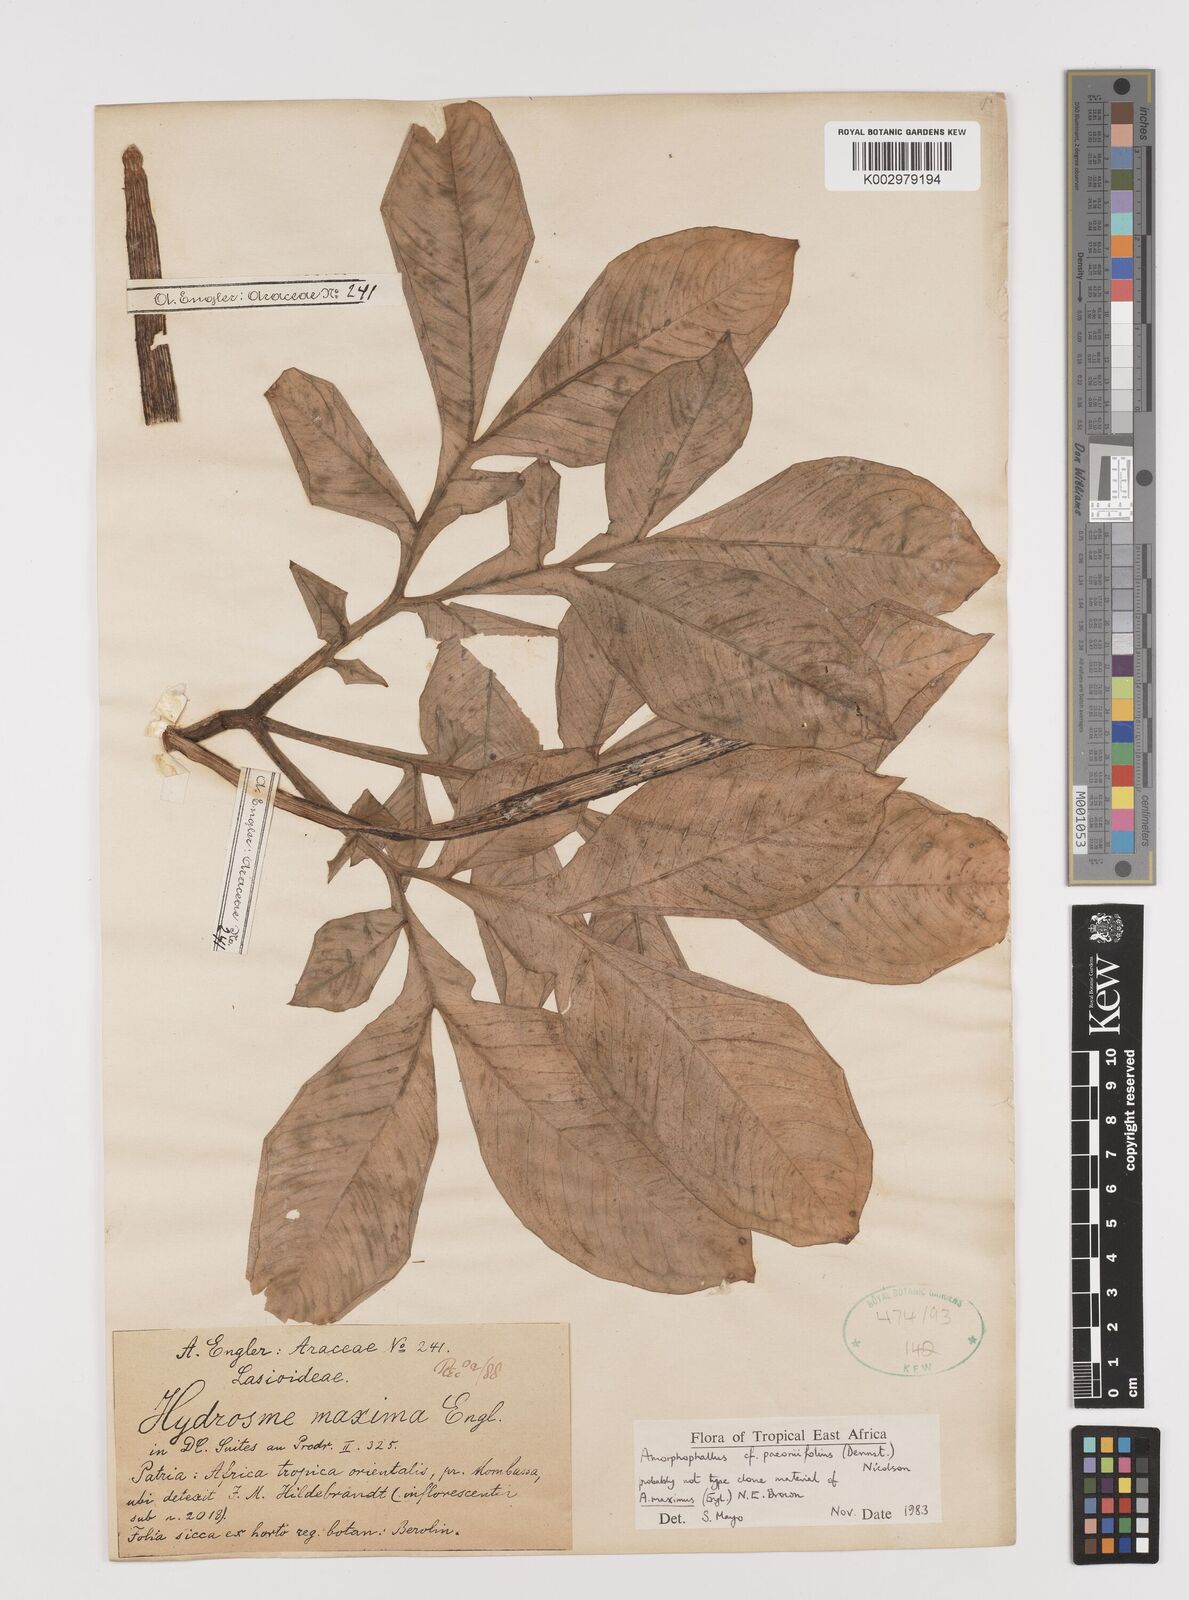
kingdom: Plantae
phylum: Tracheophyta
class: Liliopsida
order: Alismatales
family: Araceae
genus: Amorphophallus
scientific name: Amorphophallus maximus
